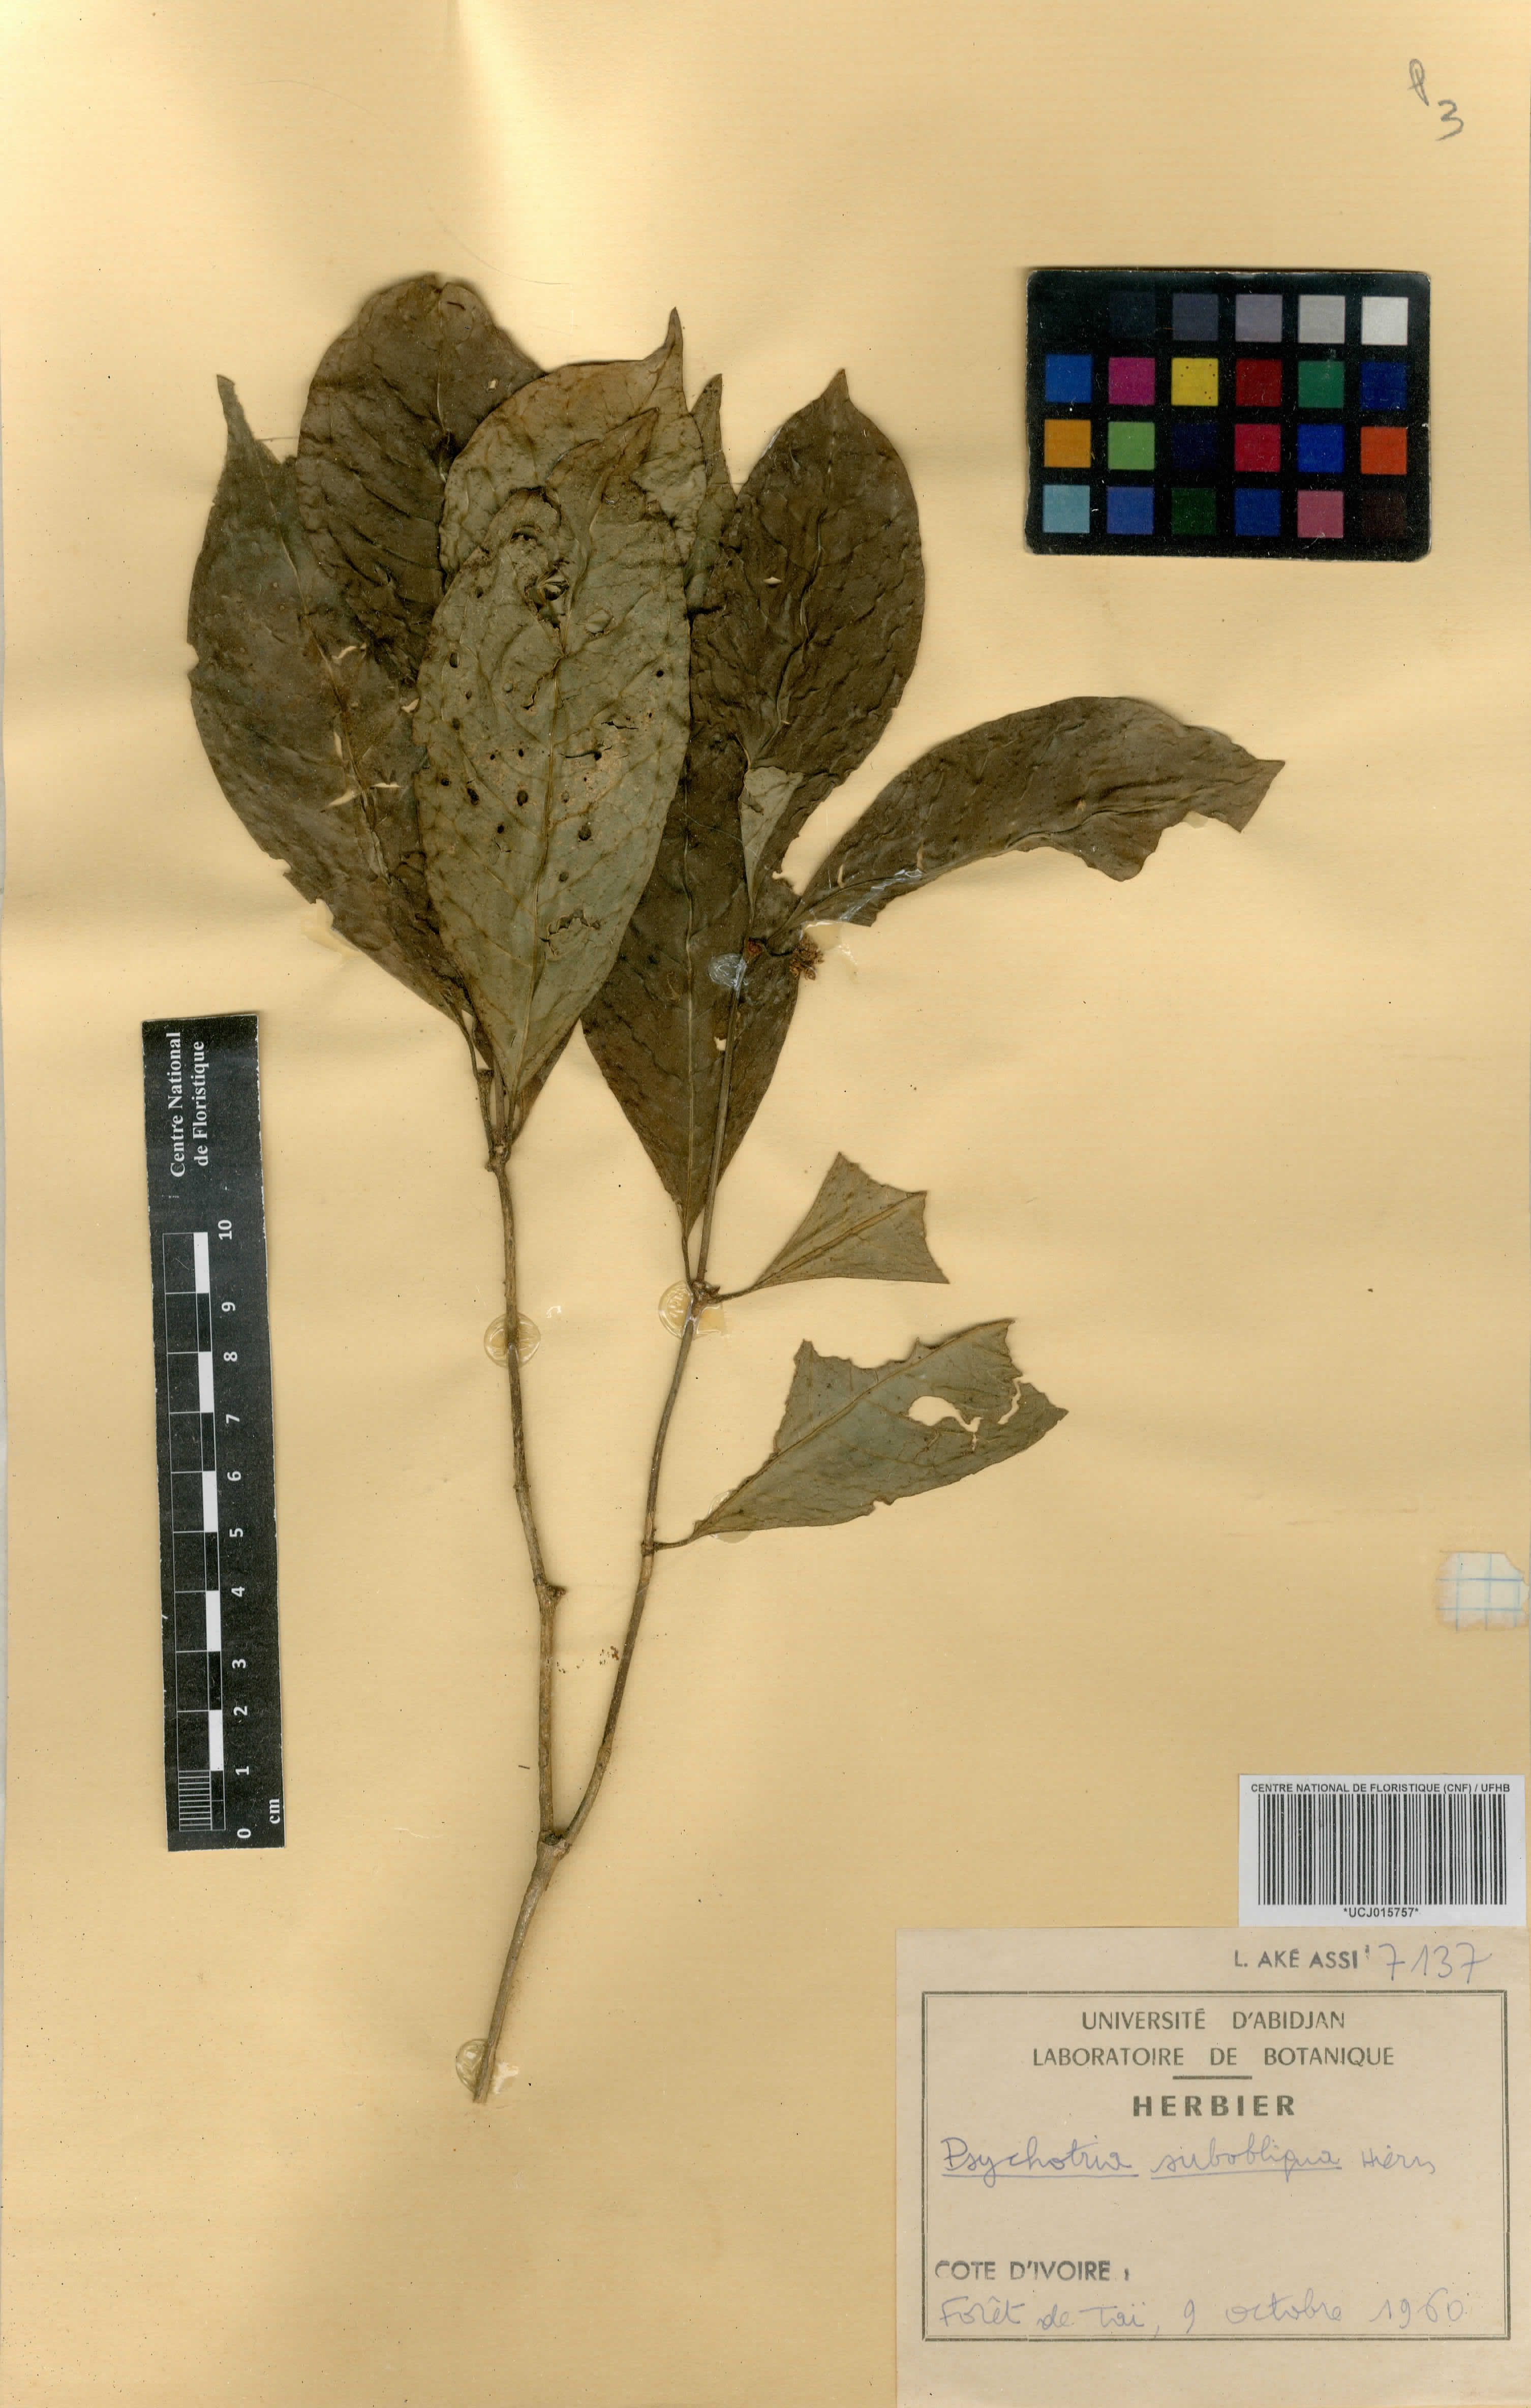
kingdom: Plantae
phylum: Tracheophyta
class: Magnoliopsida
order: Gentianales
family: Rubiaceae
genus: Psychotria
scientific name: Psychotria subobliqua
